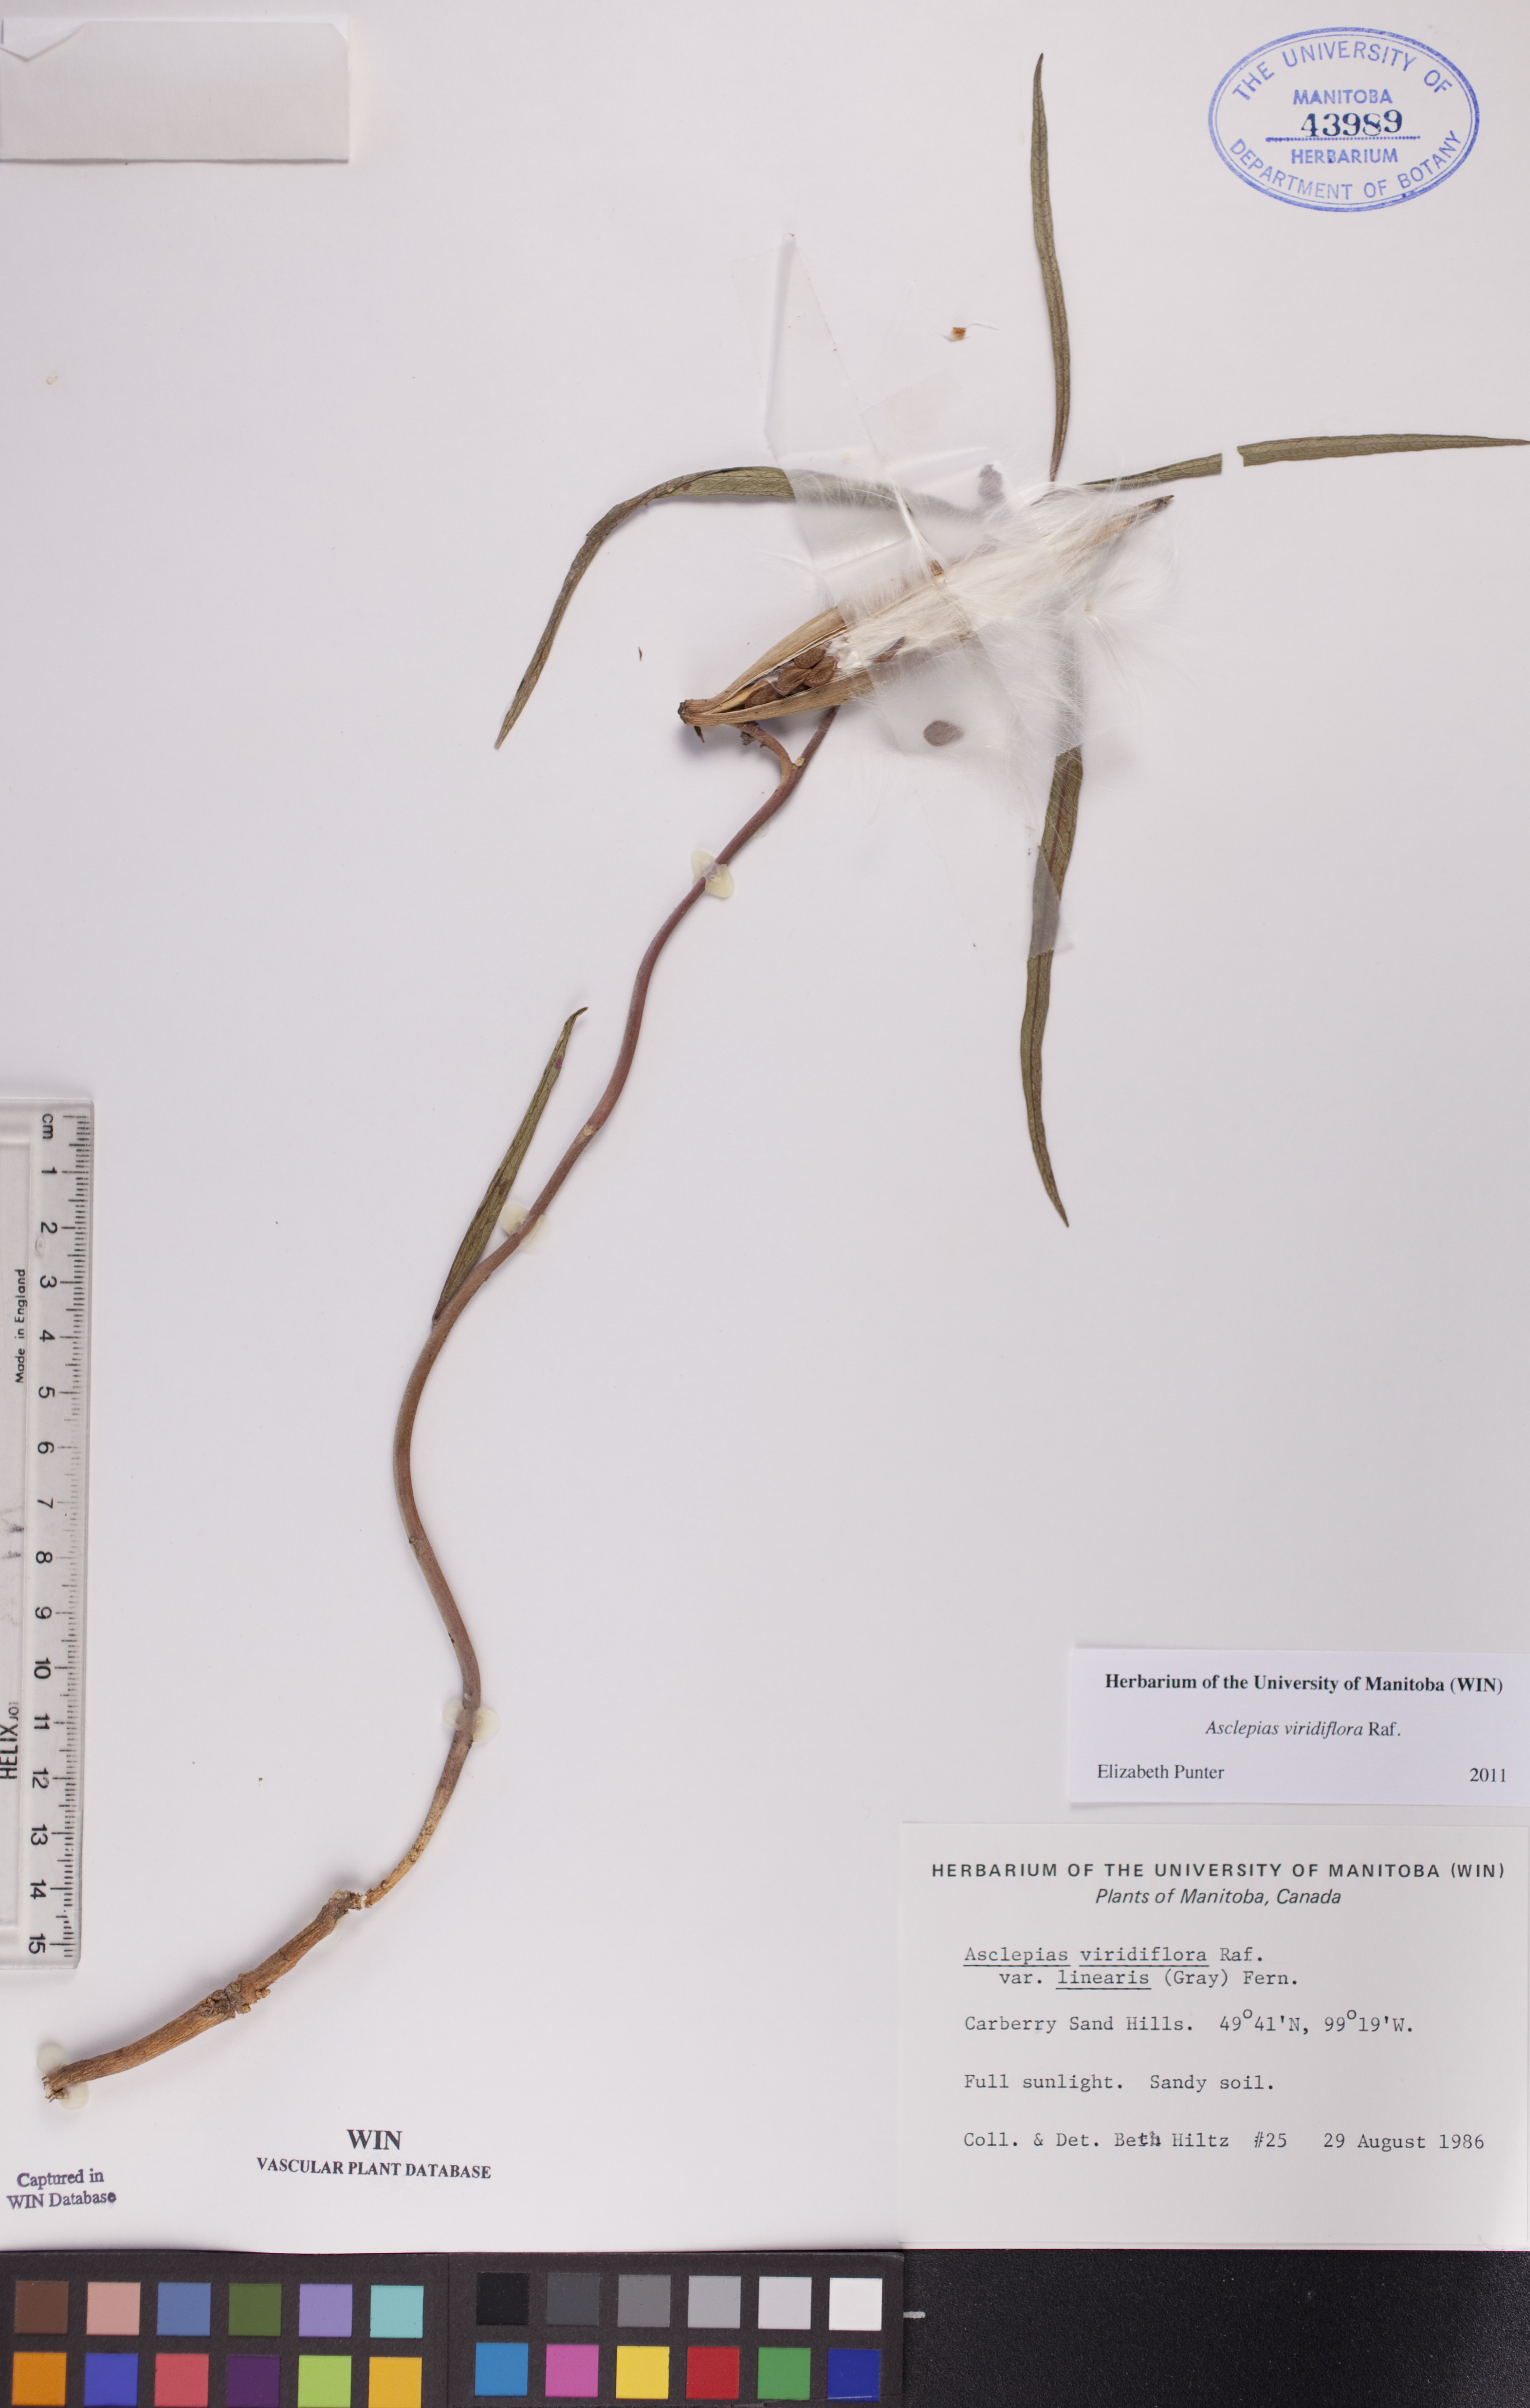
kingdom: Plantae
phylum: Tracheophyta
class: Magnoliopsida
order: Gentianales
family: Apocynaceae
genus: Asclepias
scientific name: Asclepias linearis
